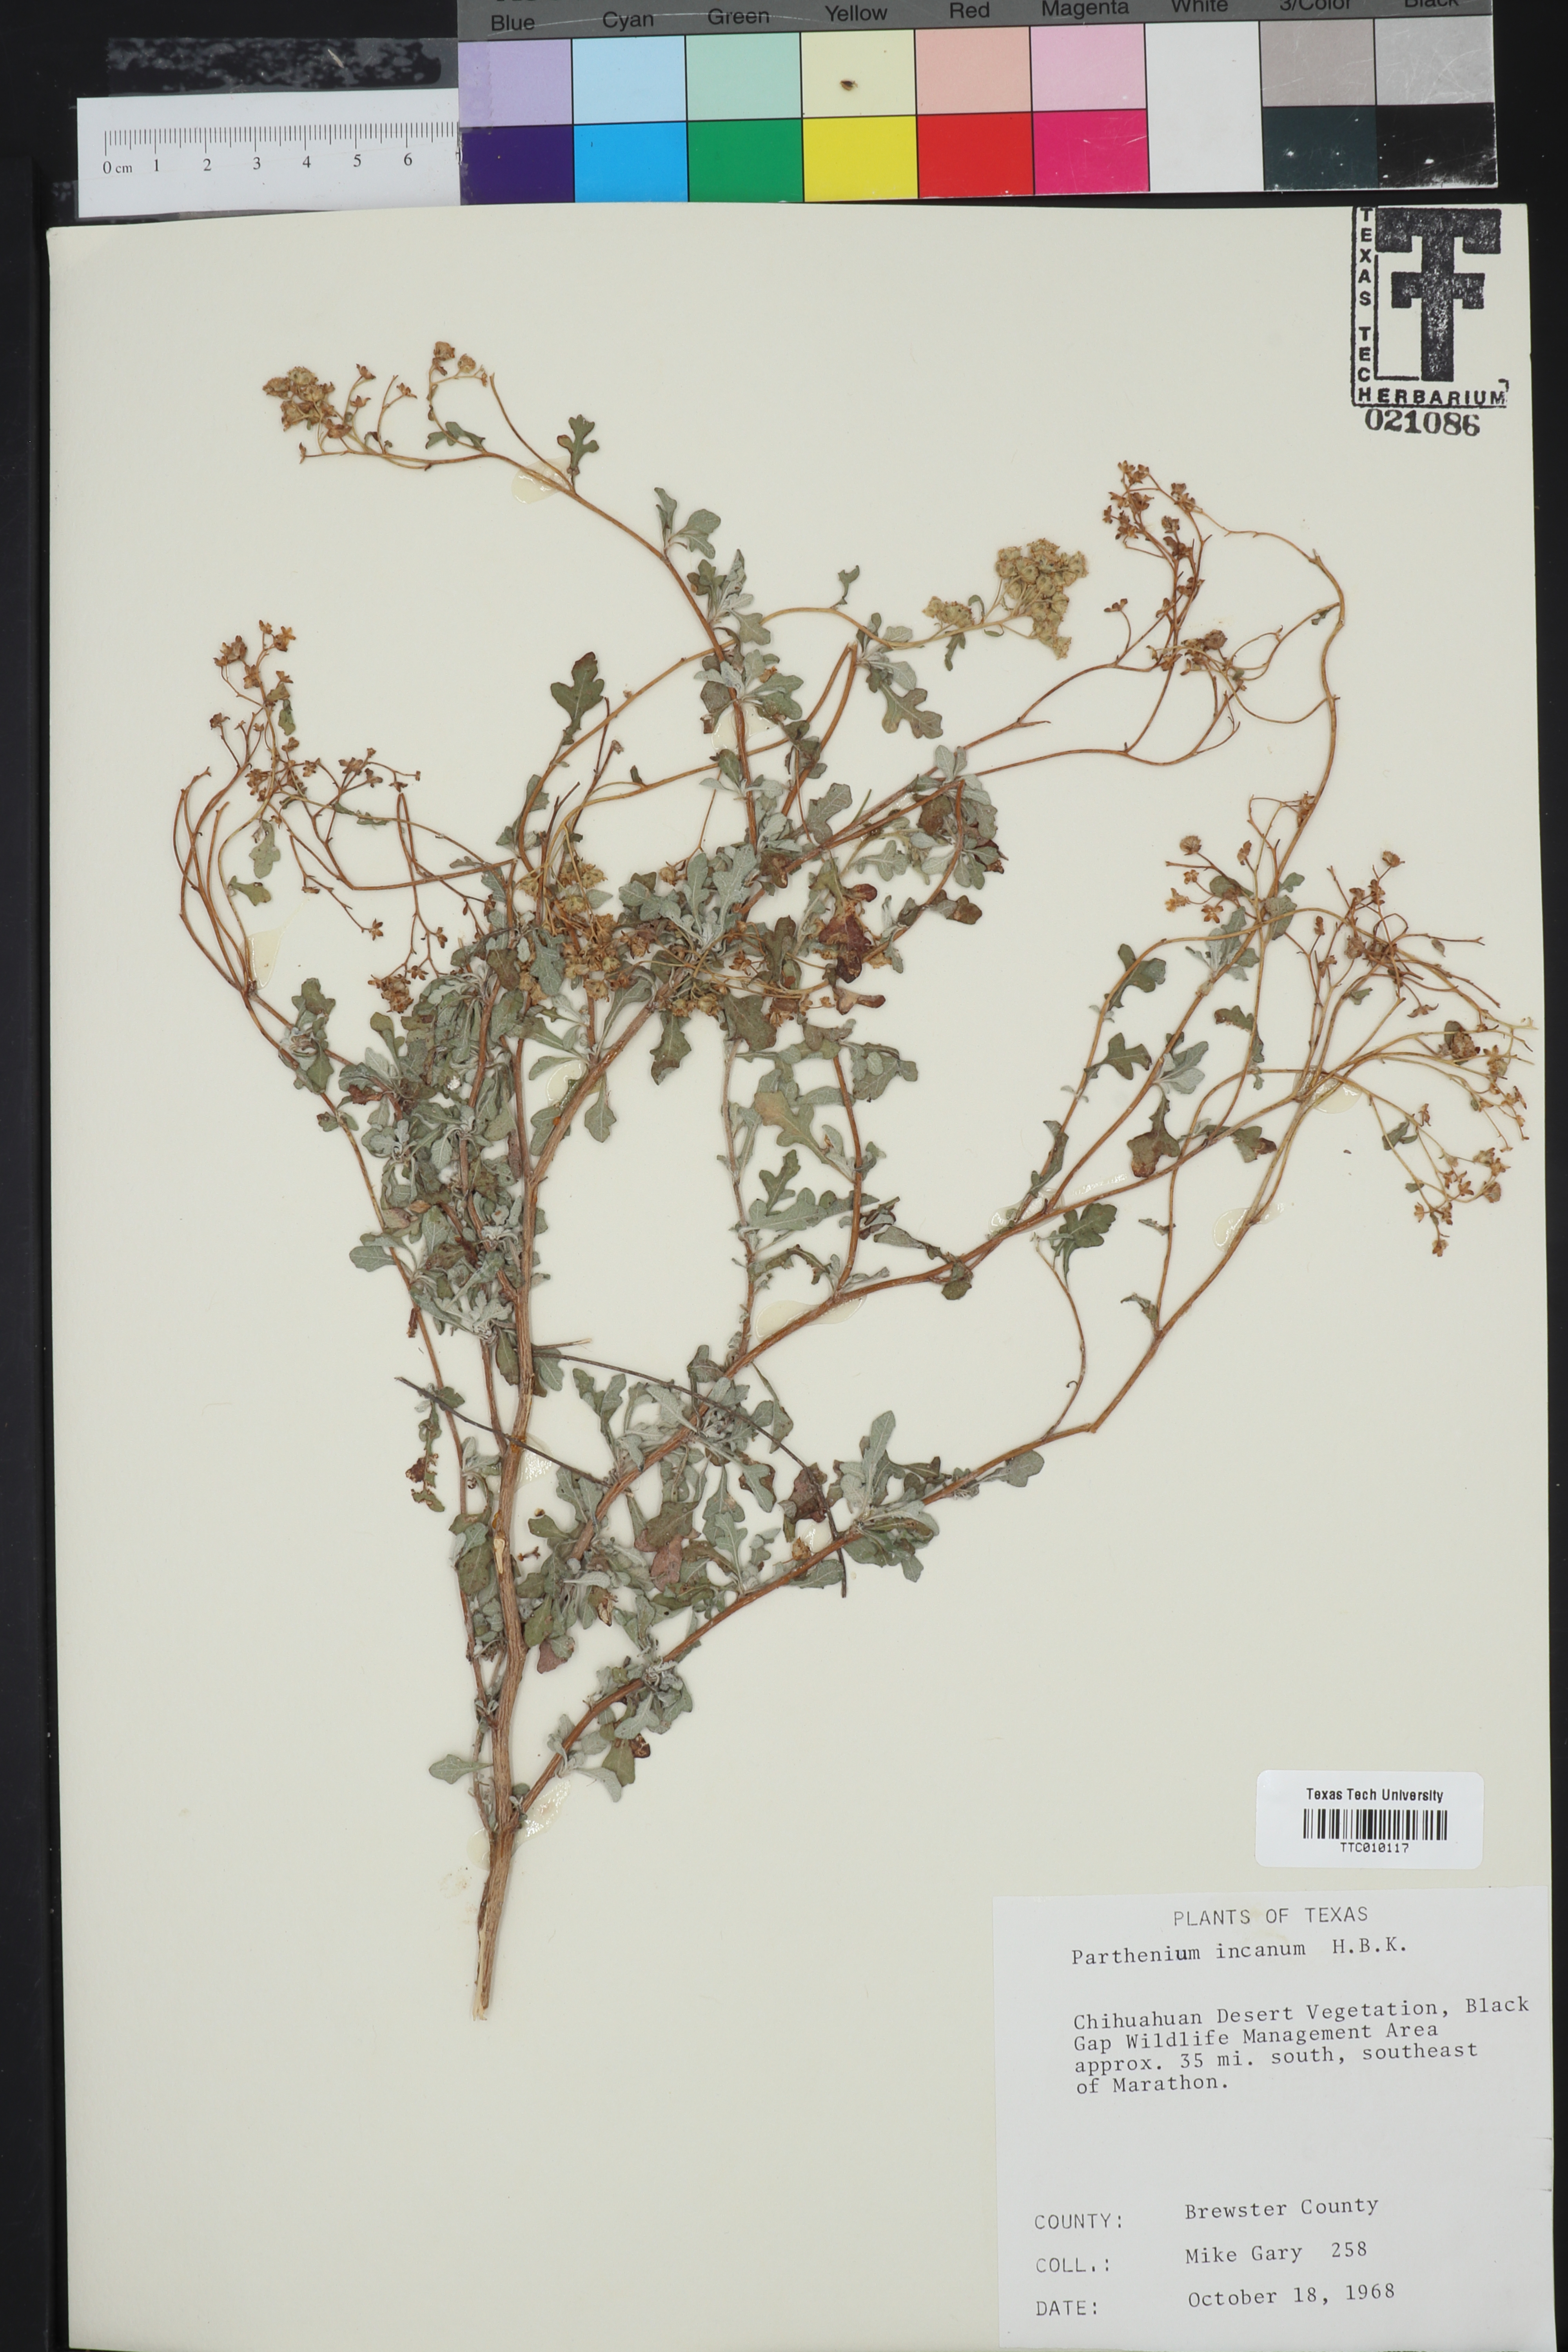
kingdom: Plantae
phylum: Tracheophyta
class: Magnoliopsida
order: Asterales
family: Asteraceae
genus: Parthenium
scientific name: Parthenium incanum
